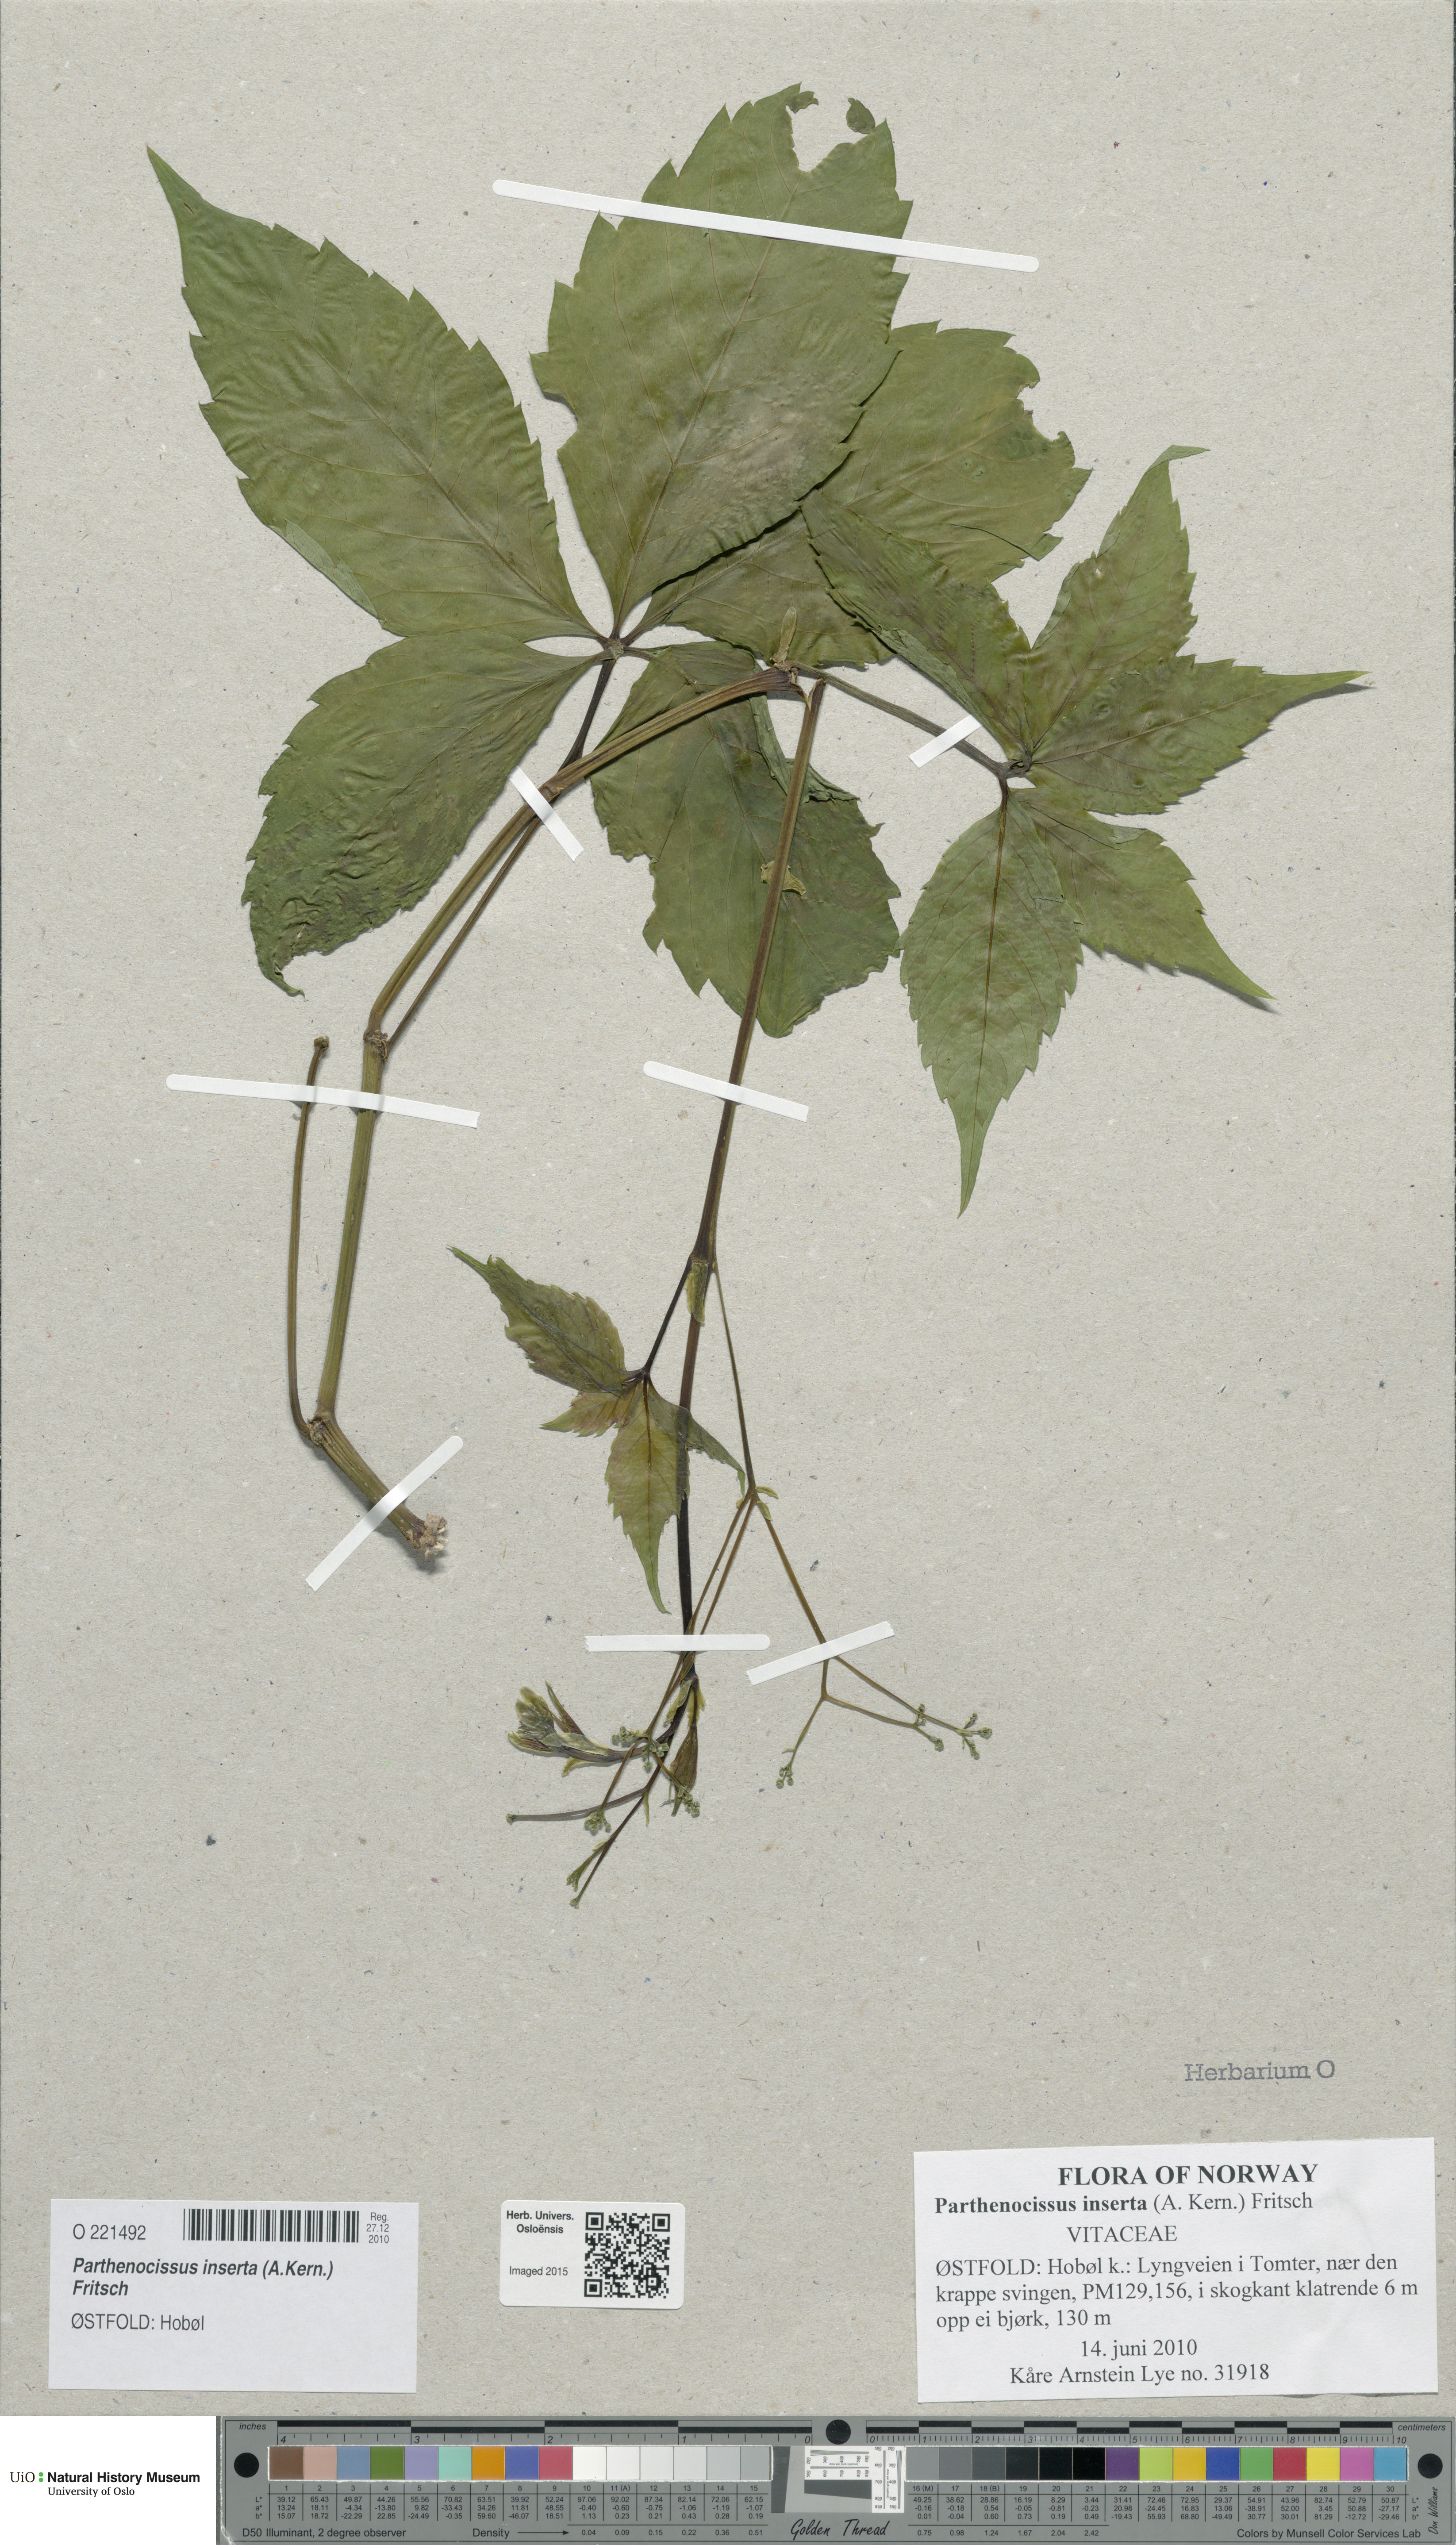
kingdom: Plantae
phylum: Tracheophyta
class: Magnoliopsida
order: Vitales
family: Vitaceae
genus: Parthenocissus
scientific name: Parthenocissus inserta
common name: False virginia-creeper
